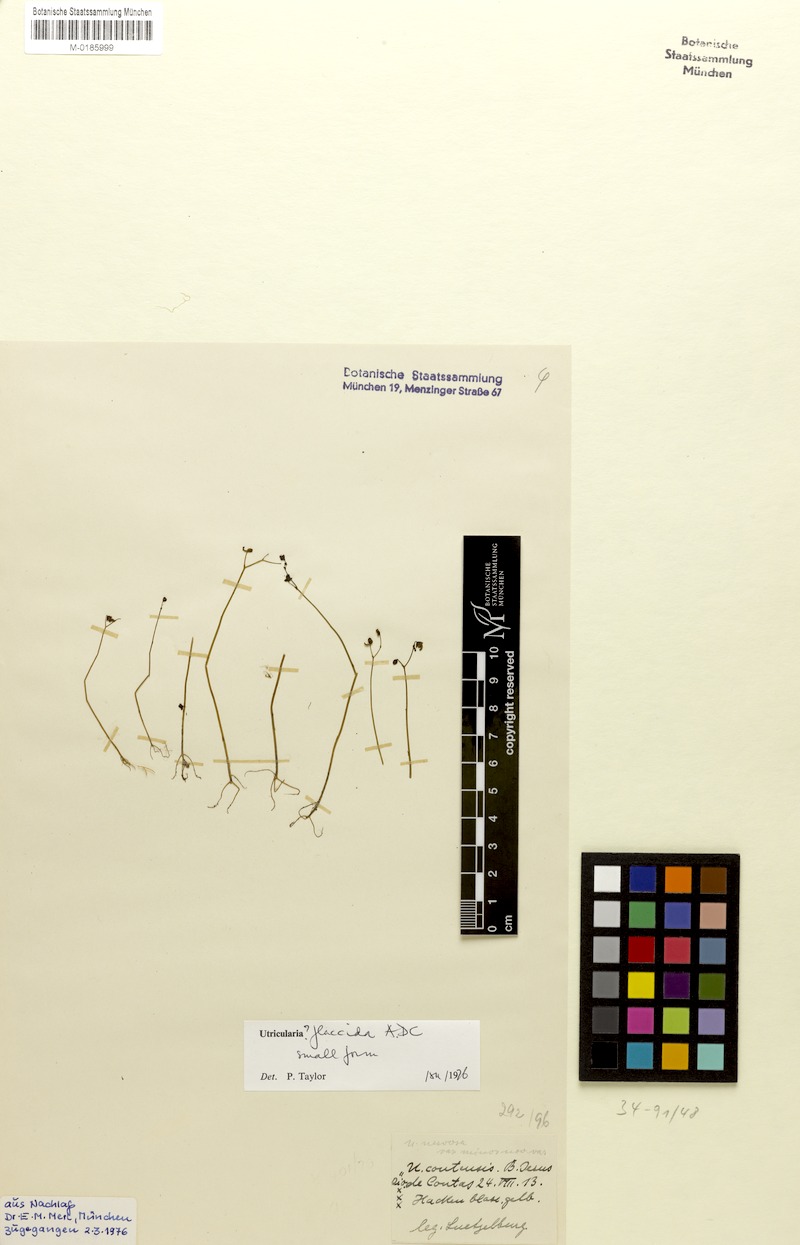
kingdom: Plantae
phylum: Tracheophyta
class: Magnoliopsida
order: Lamiales
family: Lentibulariaceae
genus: Utricularia
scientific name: Utricularia nervosa
